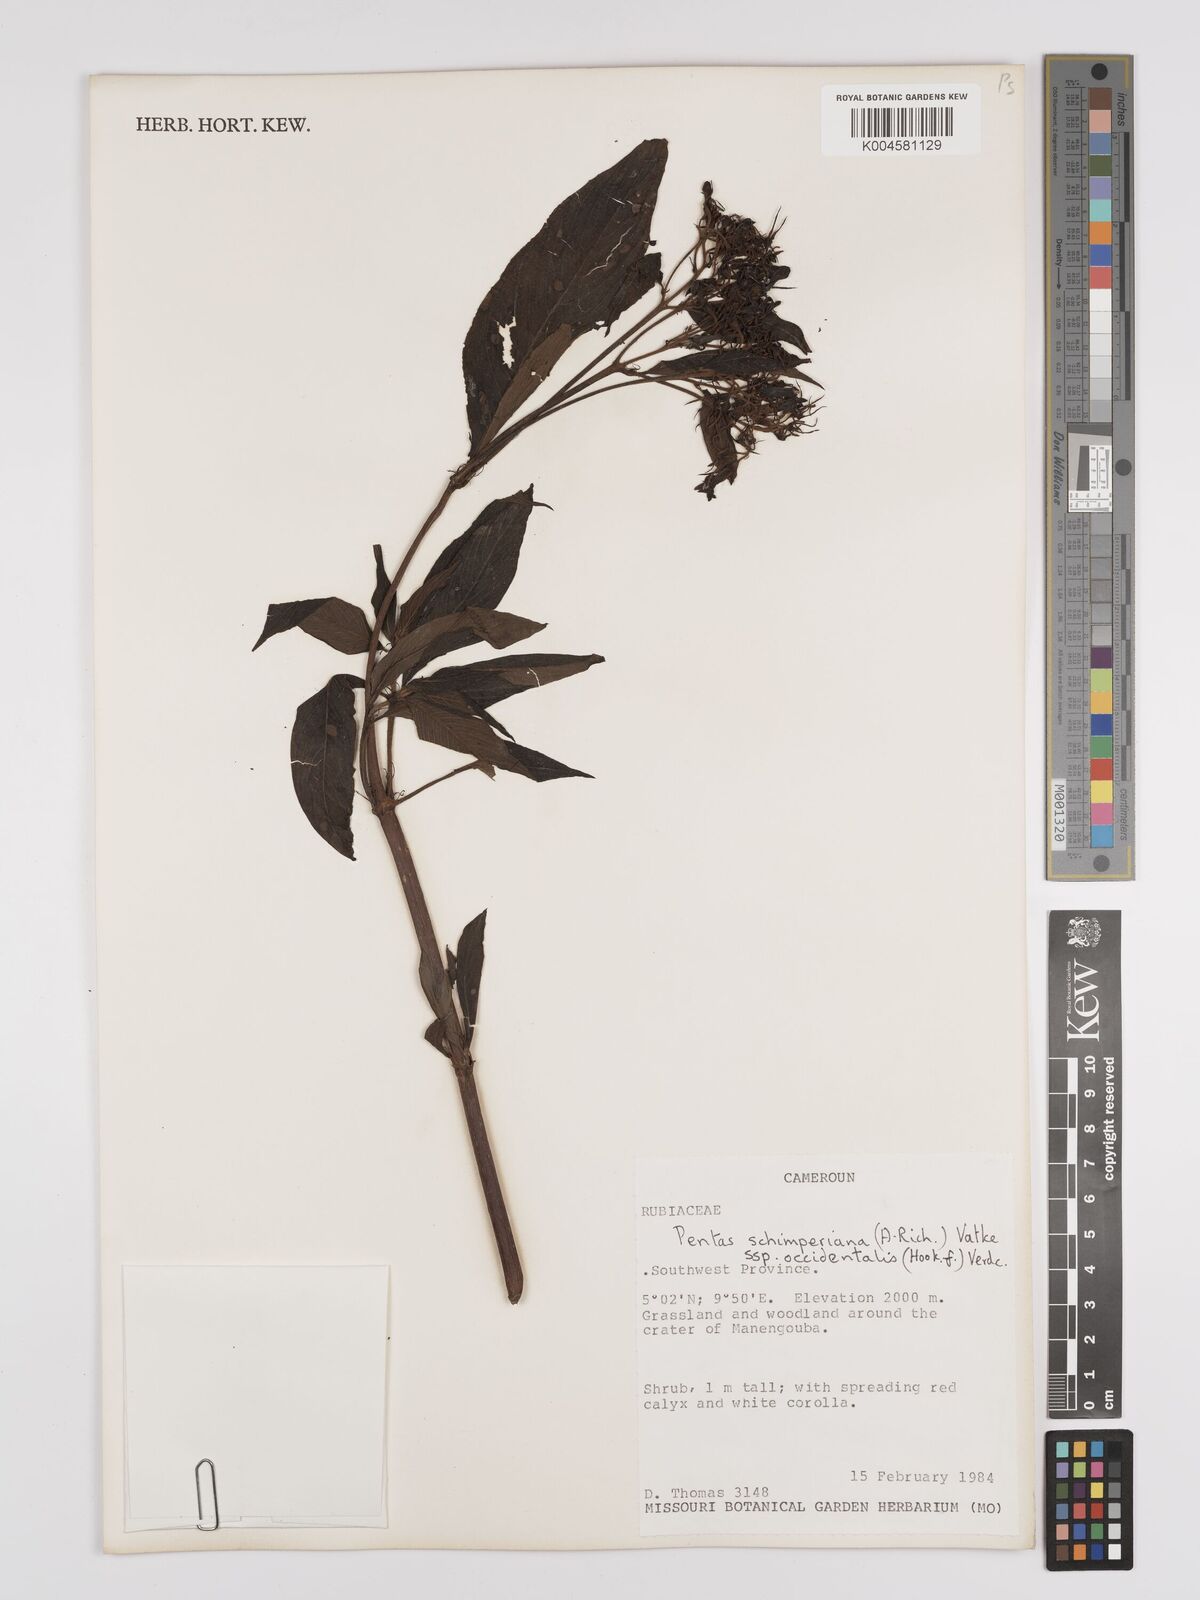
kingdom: Plantae
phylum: Tracheophyta
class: Magnoliopsida
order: Gentianales
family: Rubiaceae
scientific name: Rubiaceae
